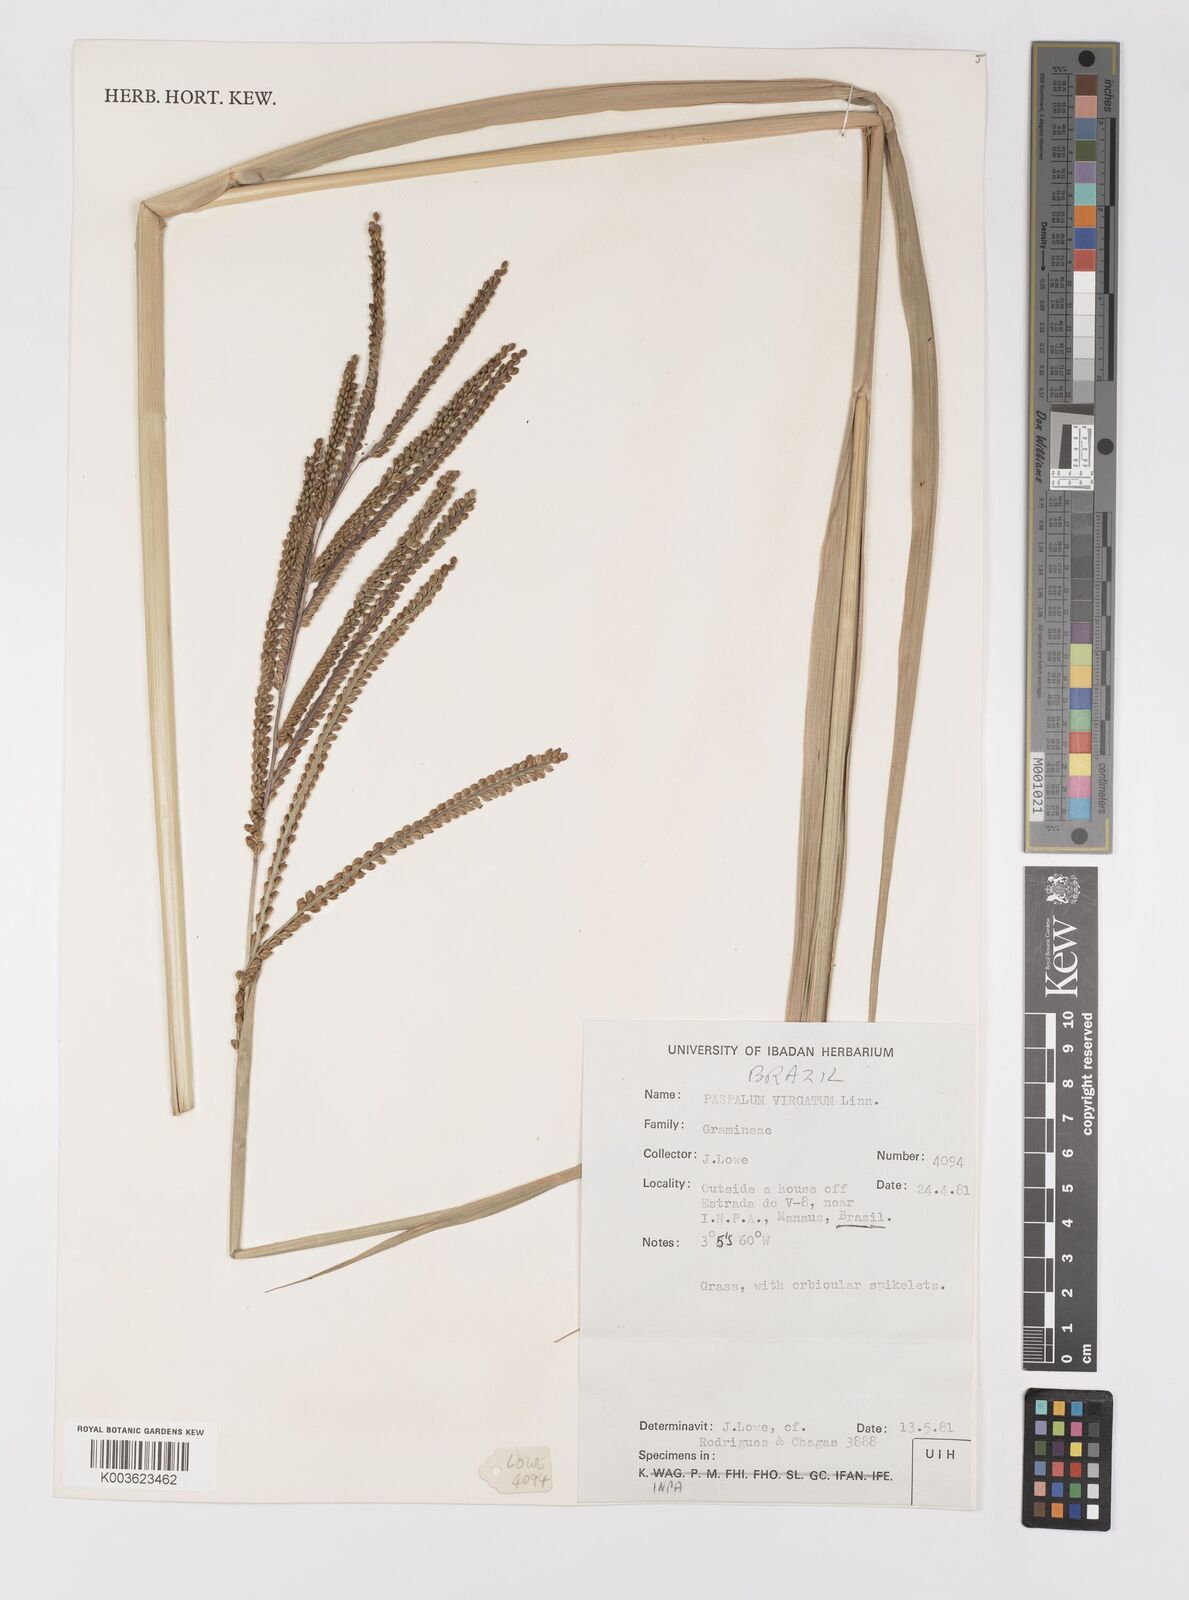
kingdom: Plantae
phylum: Tracheophyta
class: Liliopsida
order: Poales
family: Poaceae
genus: Paspalum
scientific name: Paspalum virgatum
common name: Talquezal
